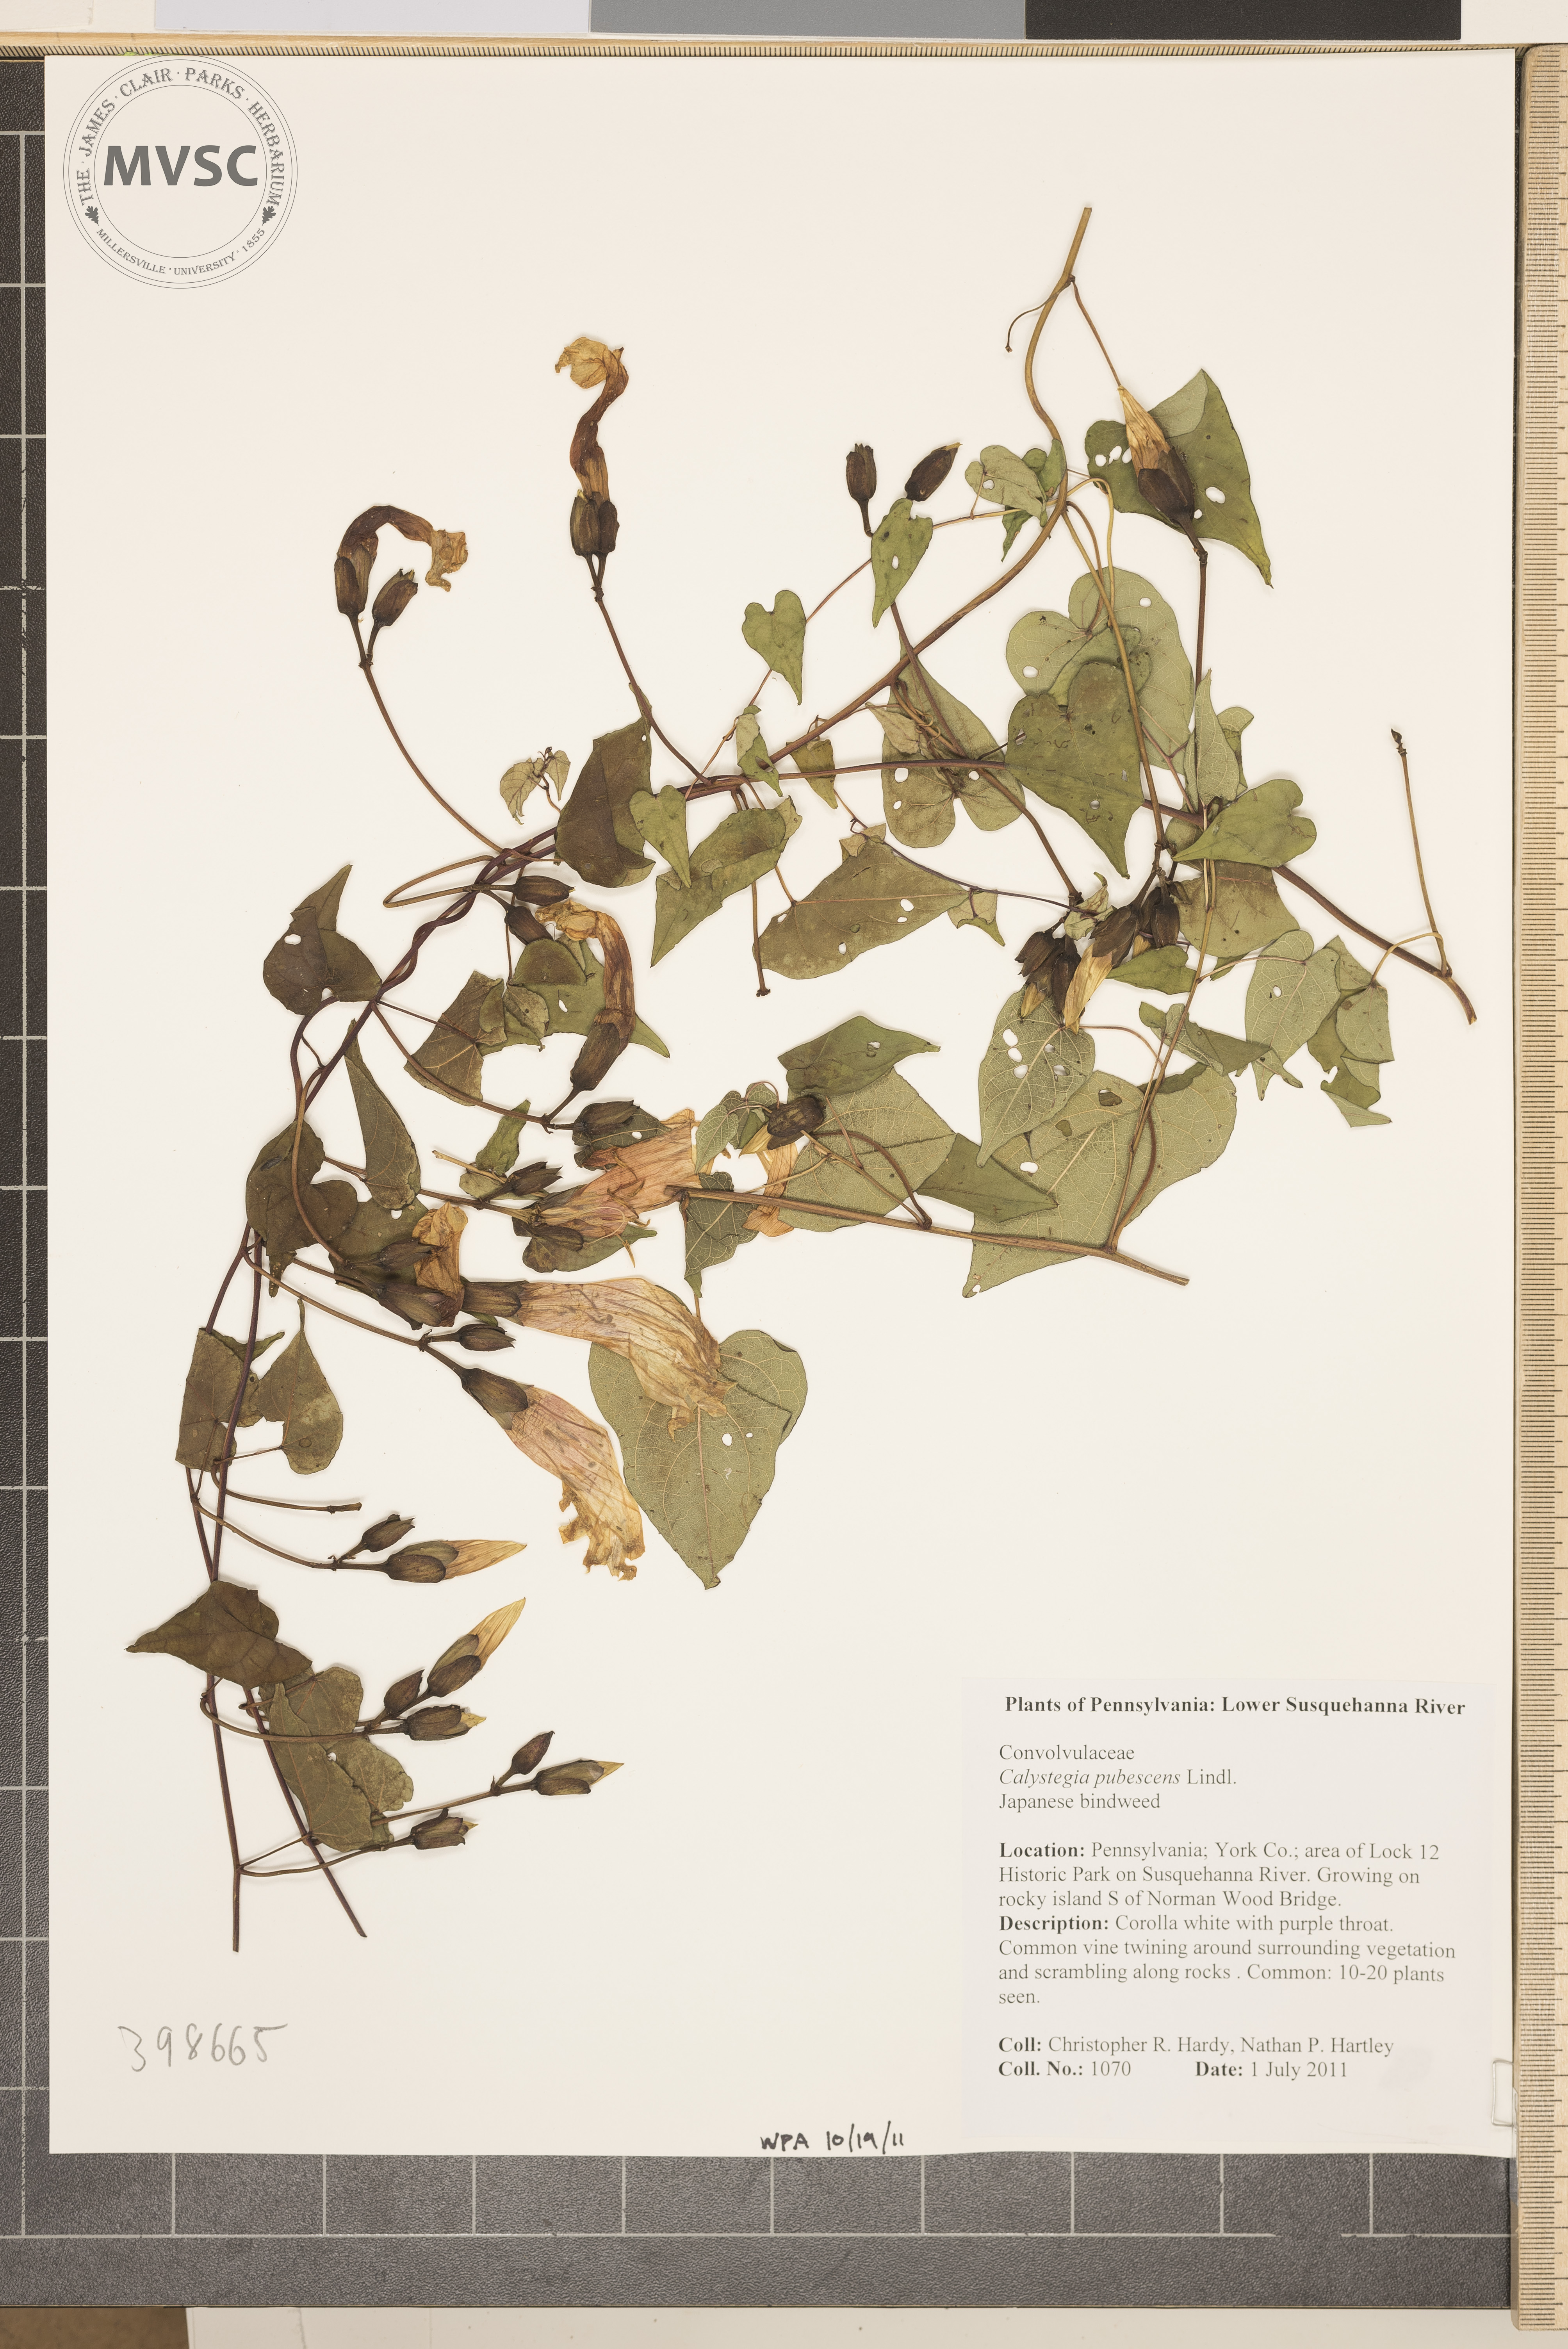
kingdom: Plantae
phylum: Tracheophyta
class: Magnoliopsida
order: Solanales
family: Convolvulaceae
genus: Calystegia
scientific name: Calystegia pubescens
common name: Japanese bindweed
